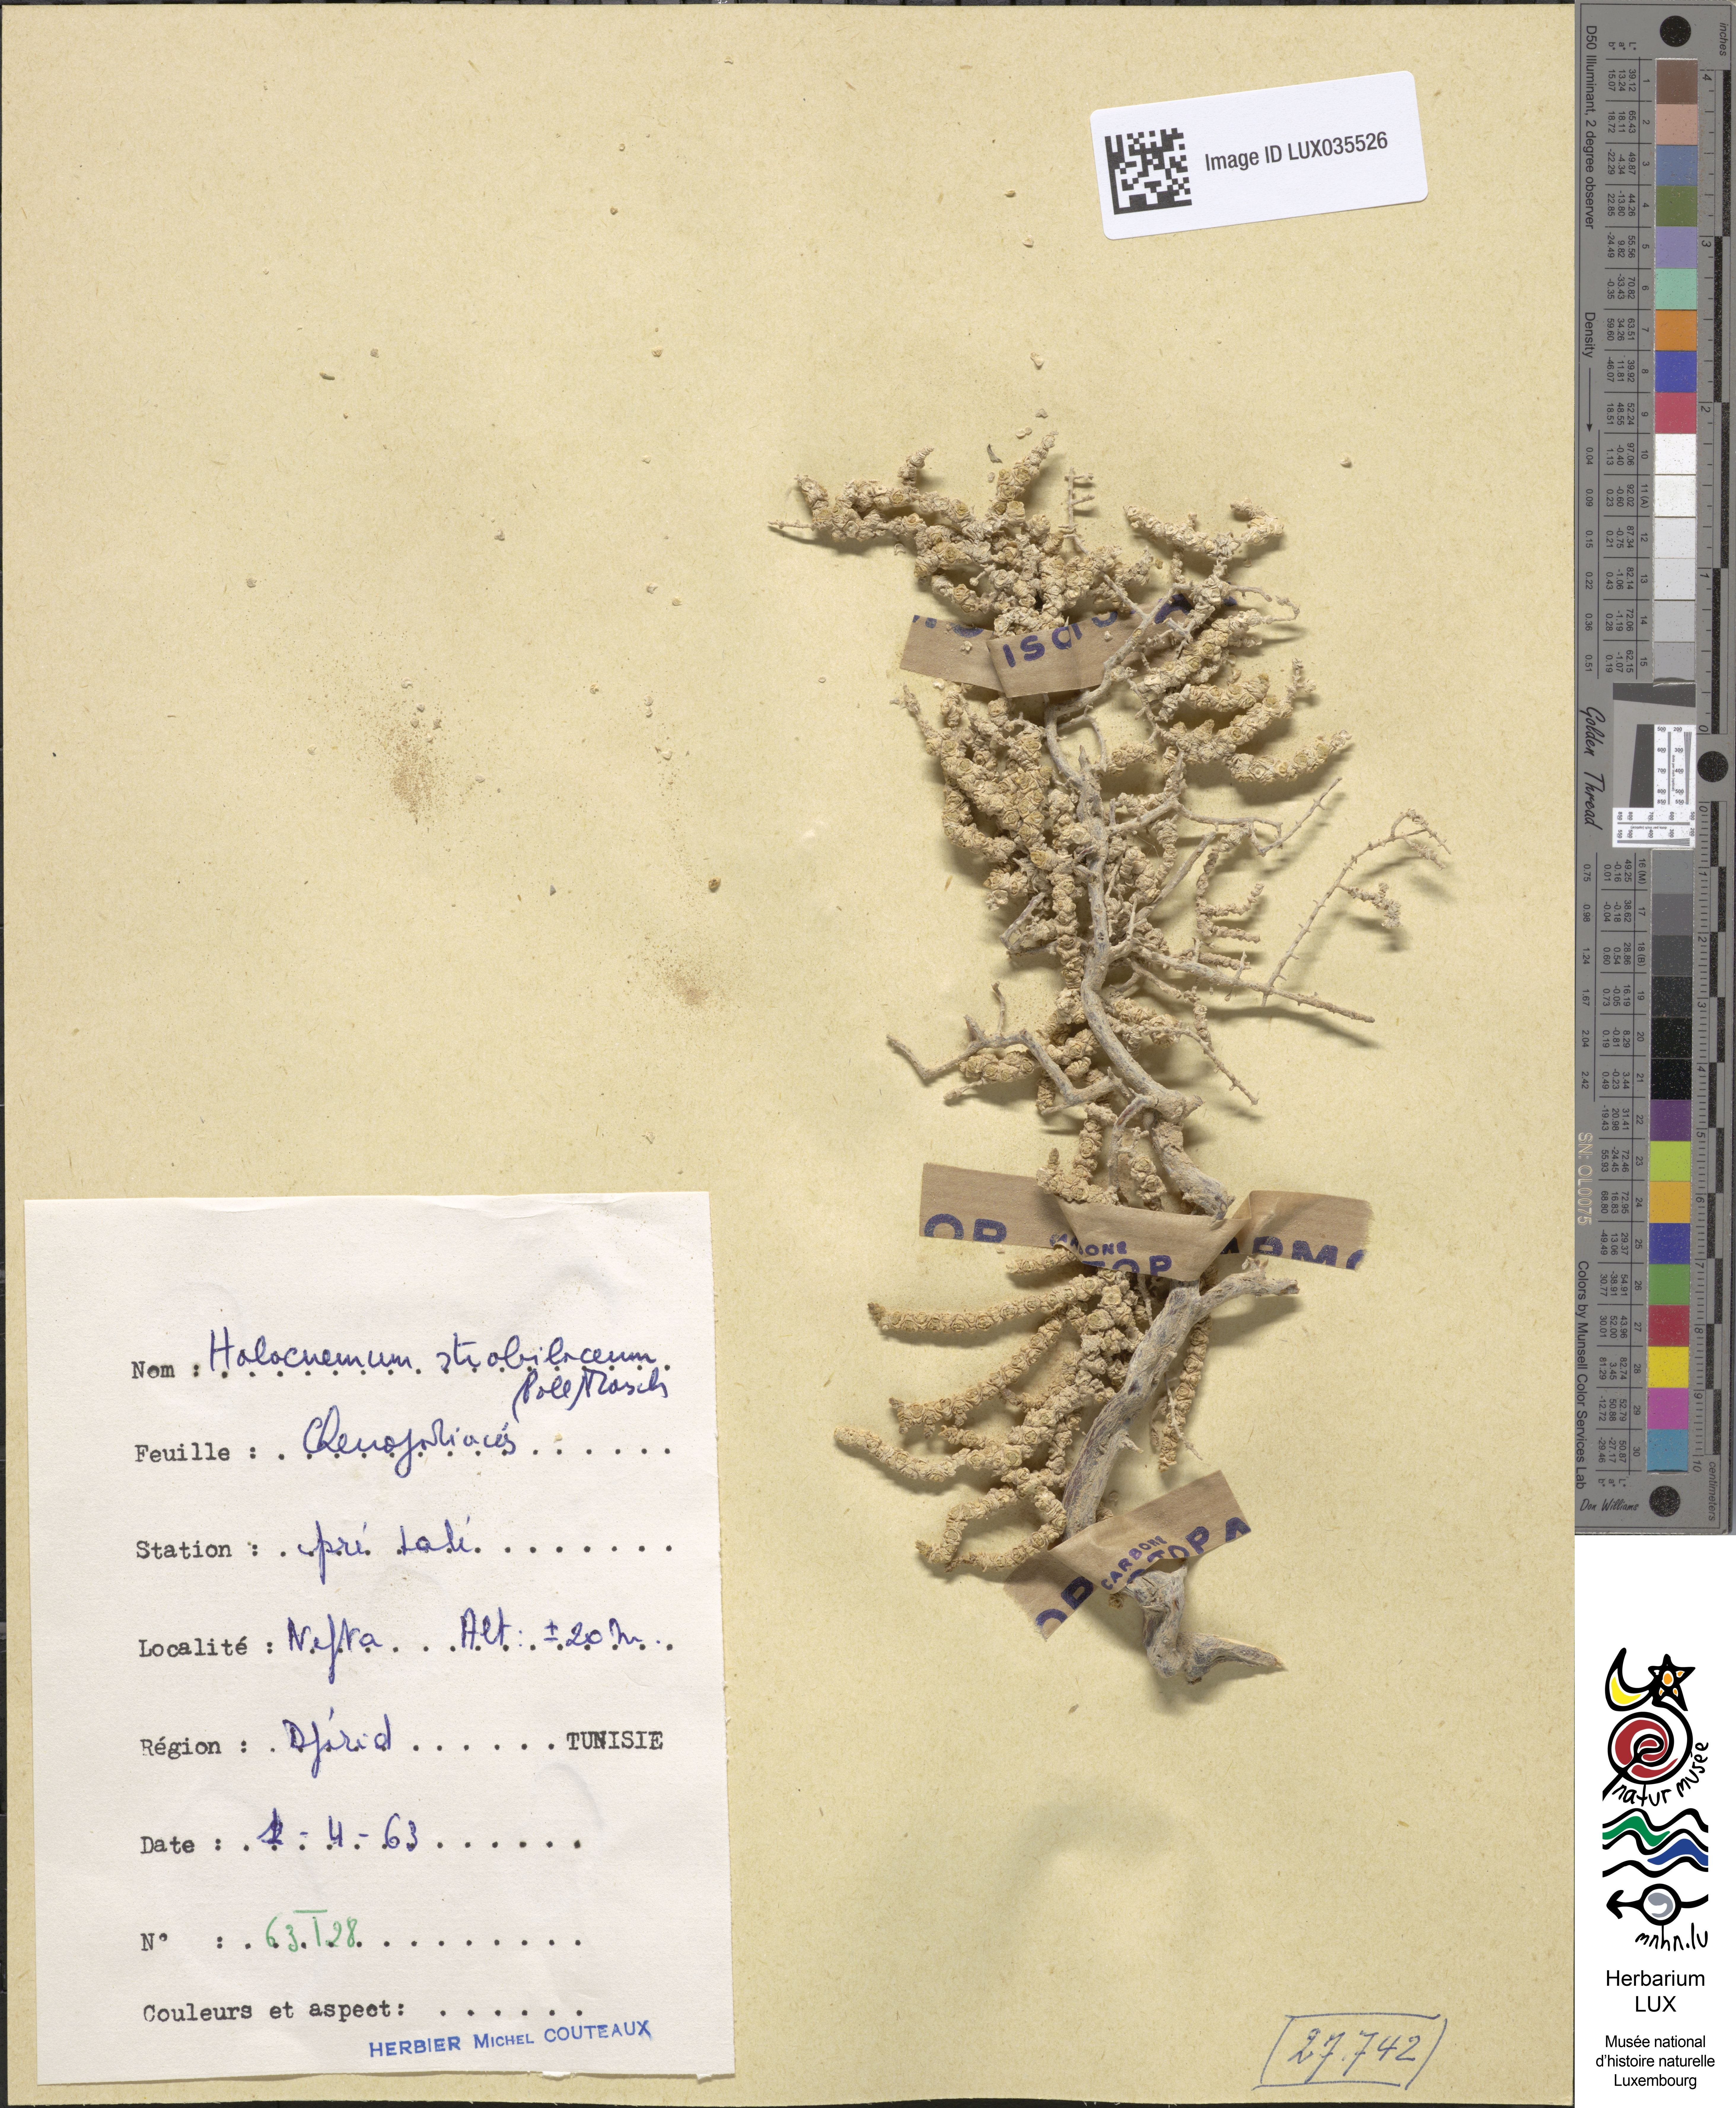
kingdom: Plantae
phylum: Tracheophyta
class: Magnoliopsida
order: Caryophyllales
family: Amaranthaceae
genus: Halocnemum
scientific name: Halocnemum strobilaceum
